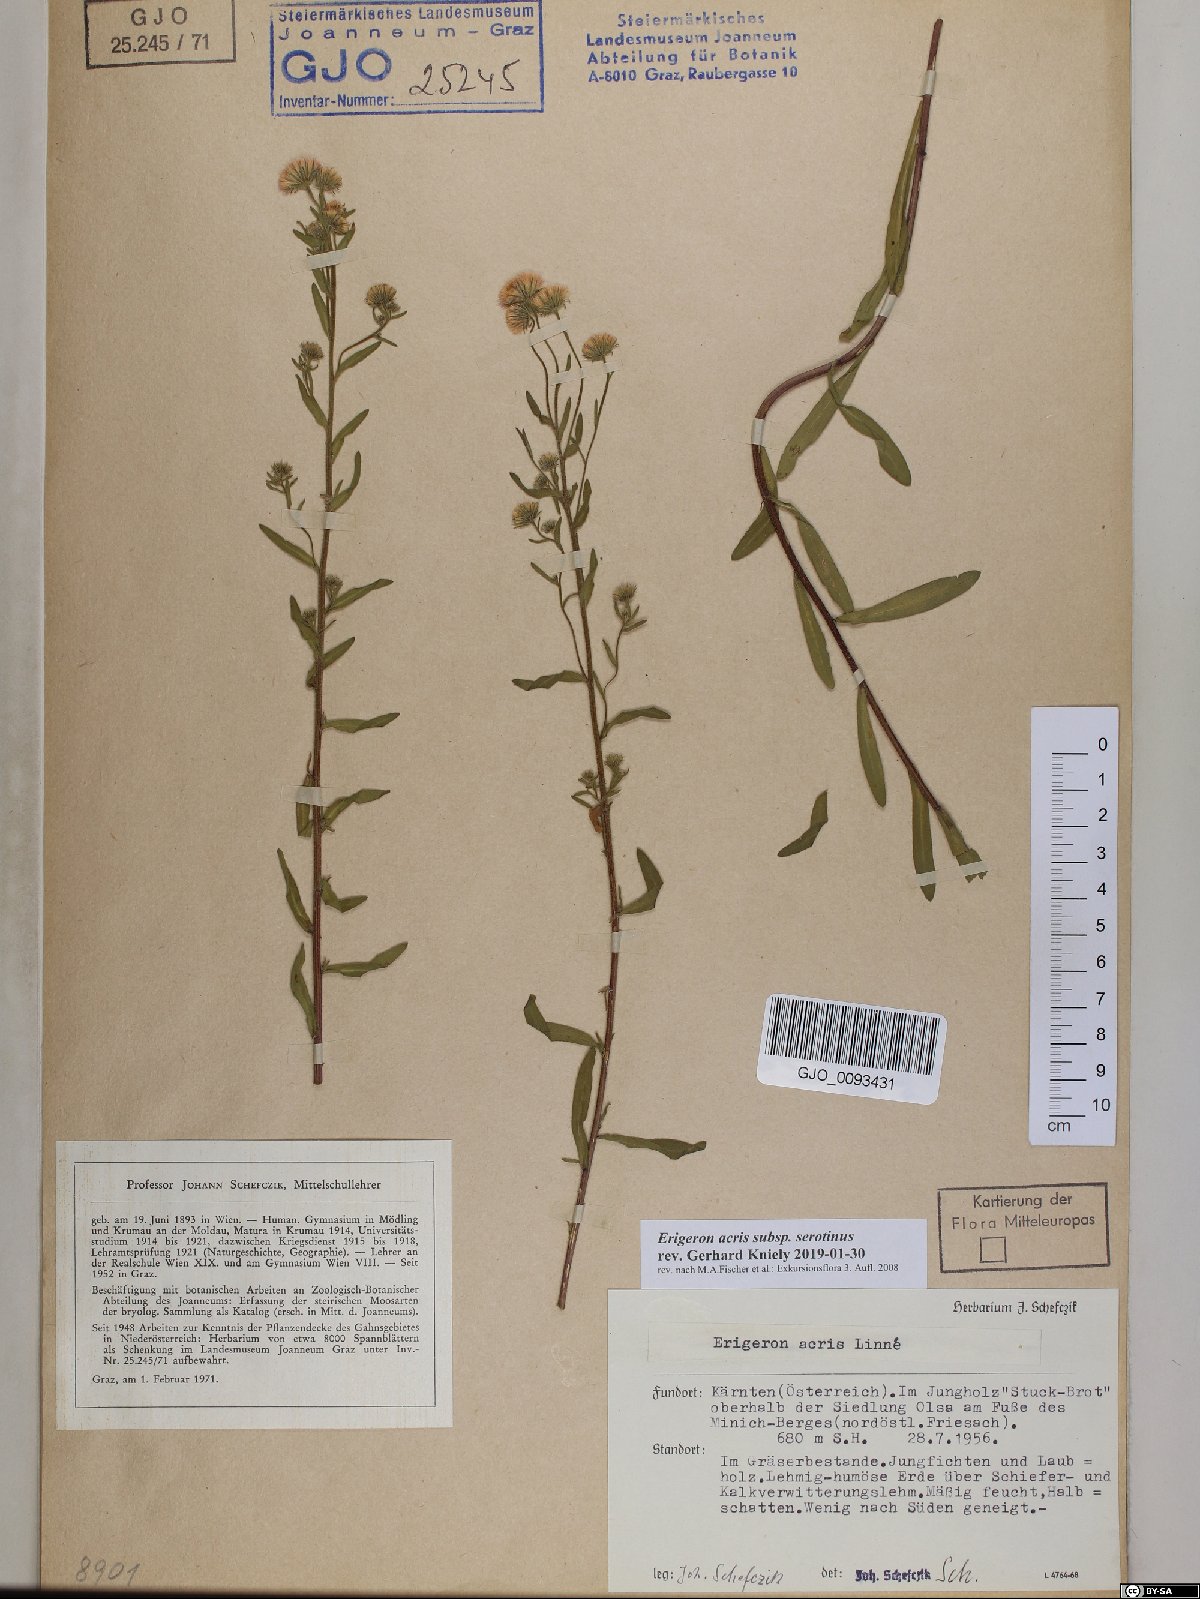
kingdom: Plantae
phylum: Tracheophyta
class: Magnoliopsida
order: Asterales
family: Asteraceae
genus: Erigeron
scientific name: Erigeron muralis
